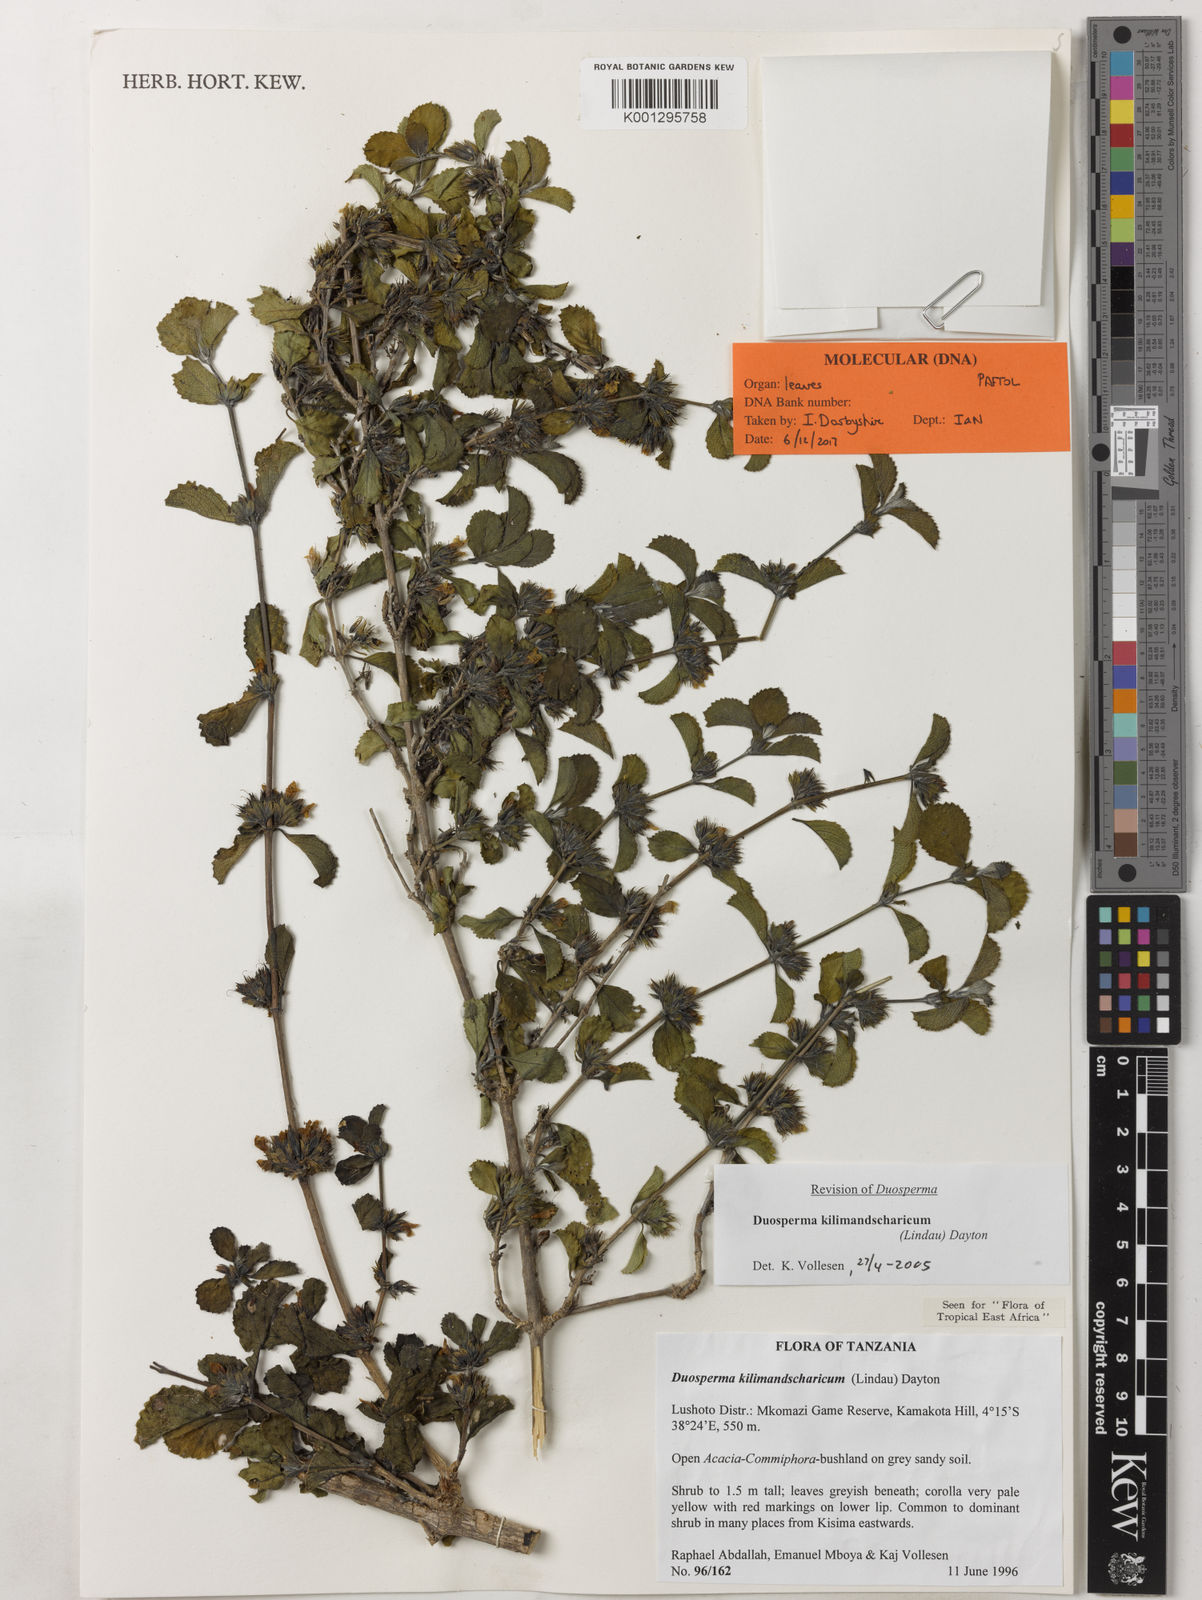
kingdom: Plantae
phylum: Tracheophyta
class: Magnoliopsida
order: Lamiales
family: Acanthaceae
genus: Duosperma
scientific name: Duosperma kilimandscharicum
